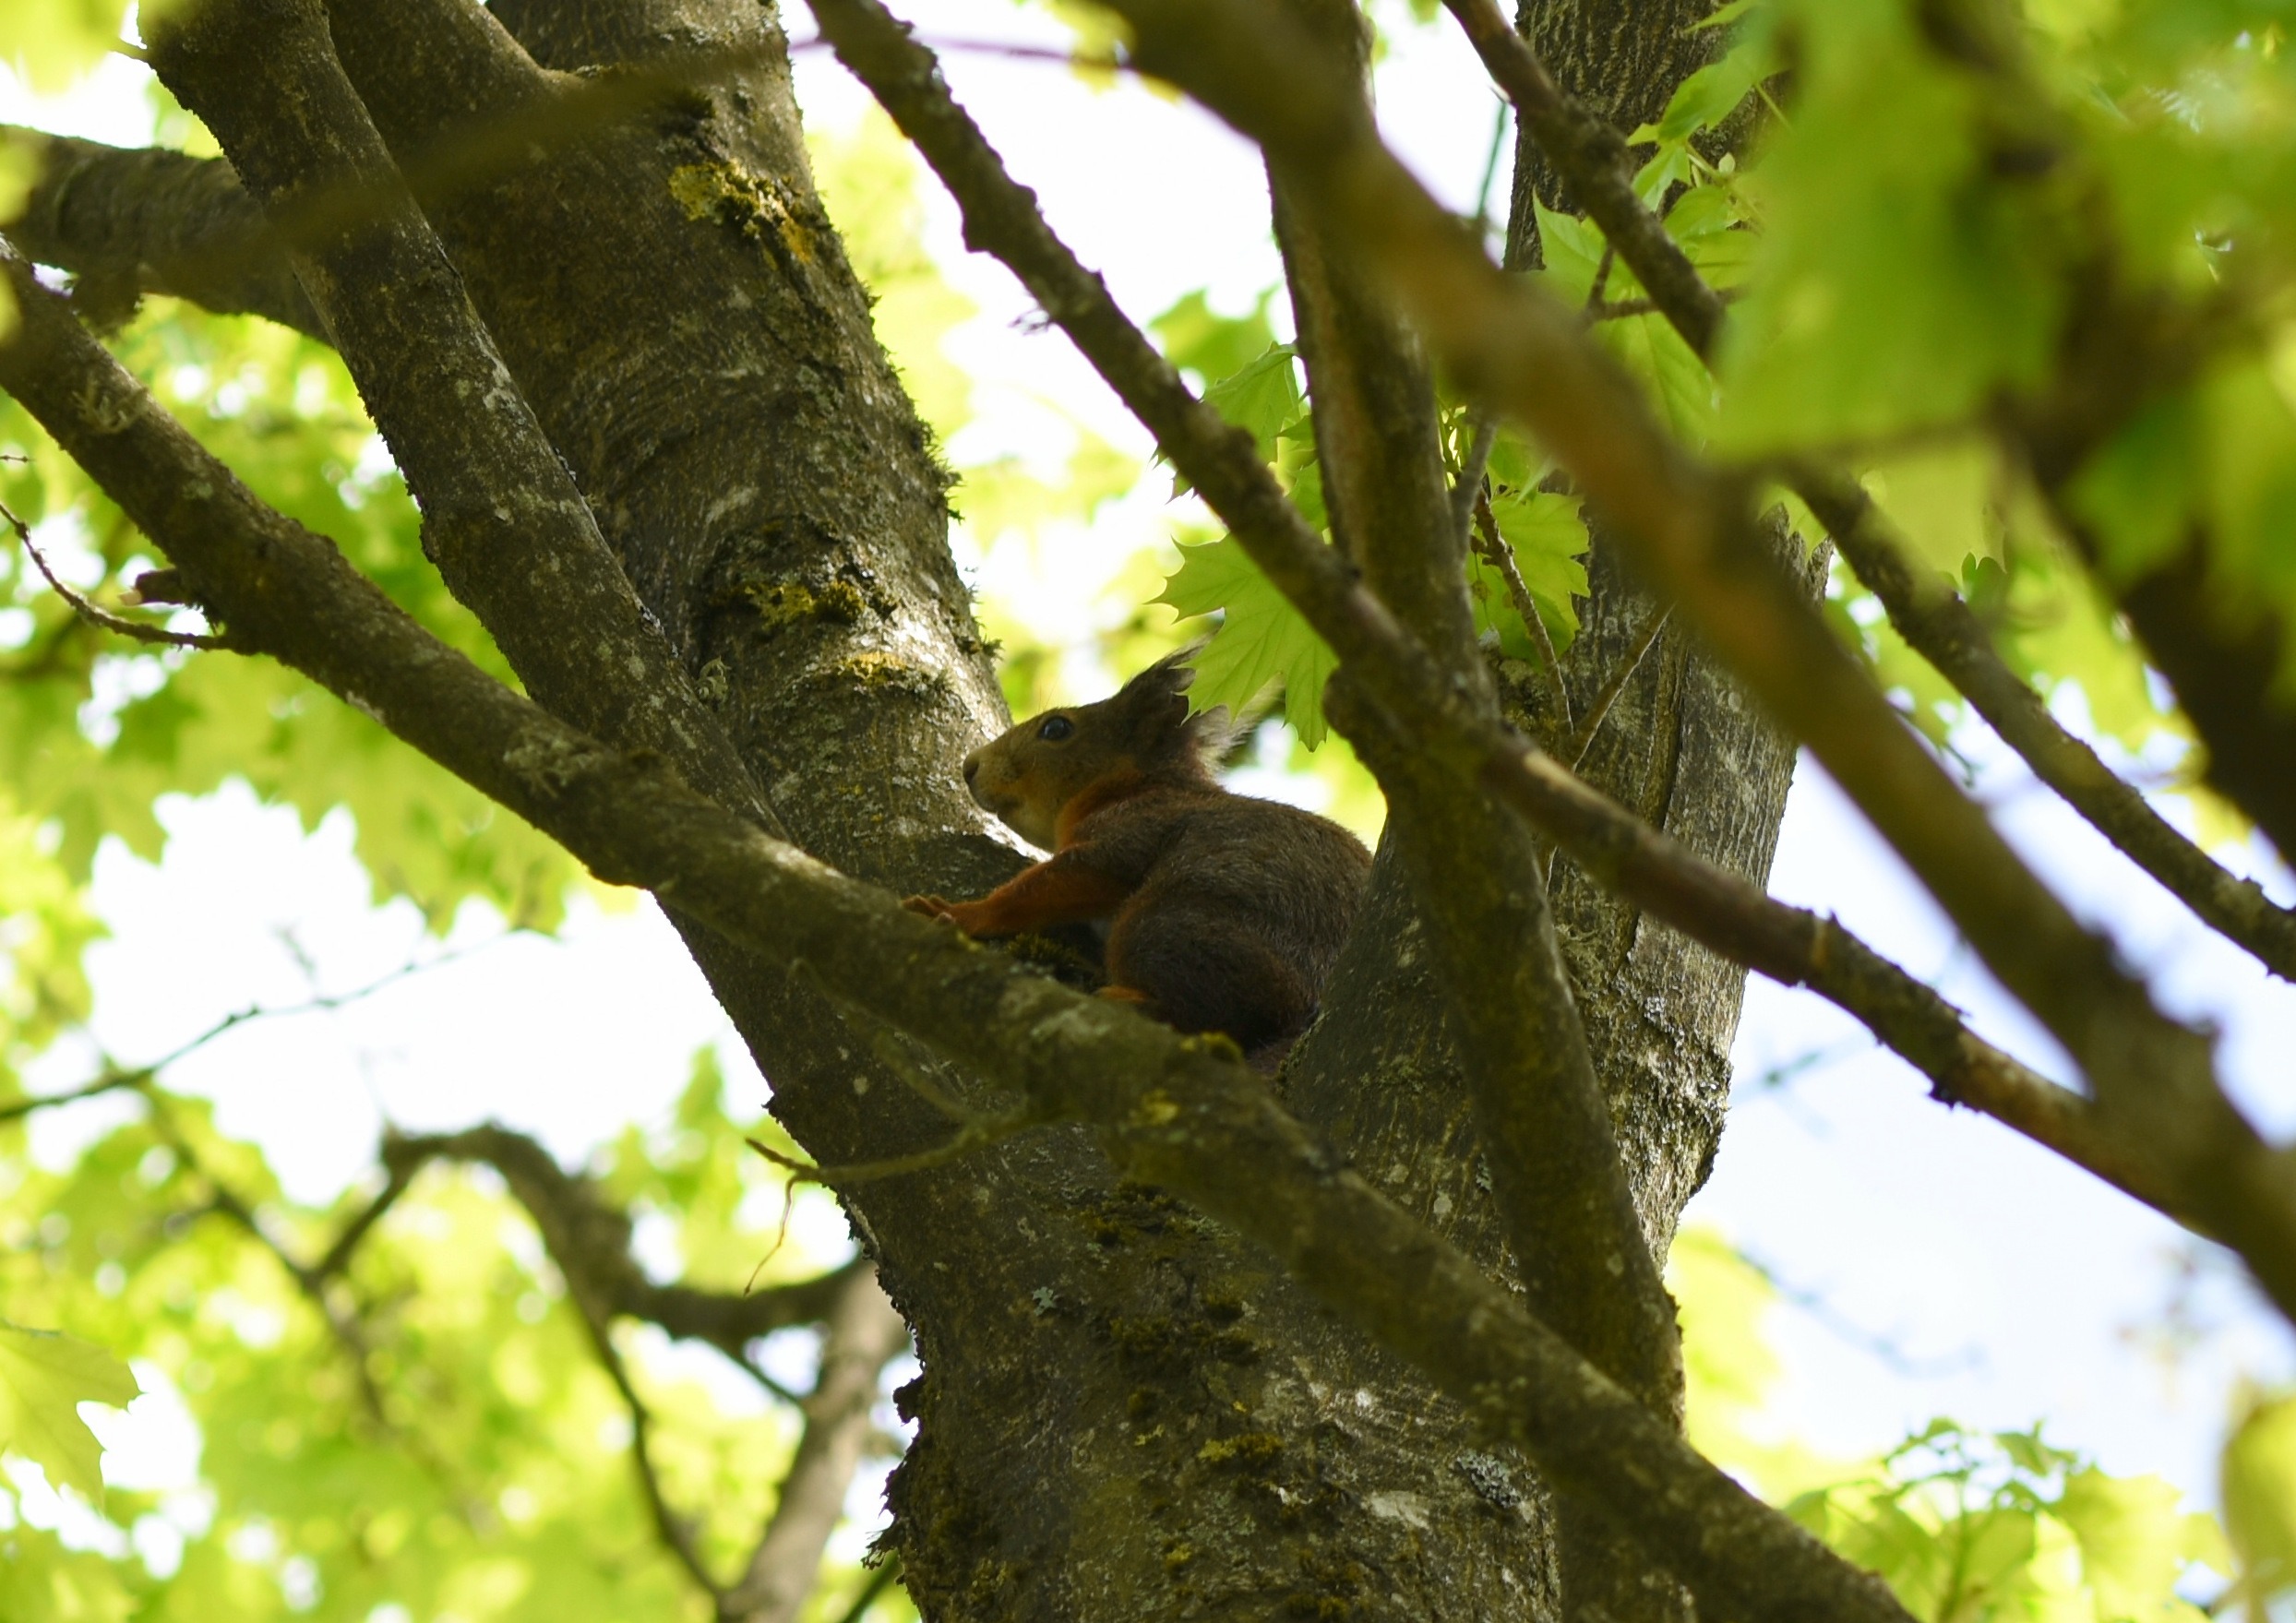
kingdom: Animalia
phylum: Chordata
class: Mammalia
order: Rodentia
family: Sciuridae
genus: Sciurus
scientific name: Sciurus vulgaris
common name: Egern
